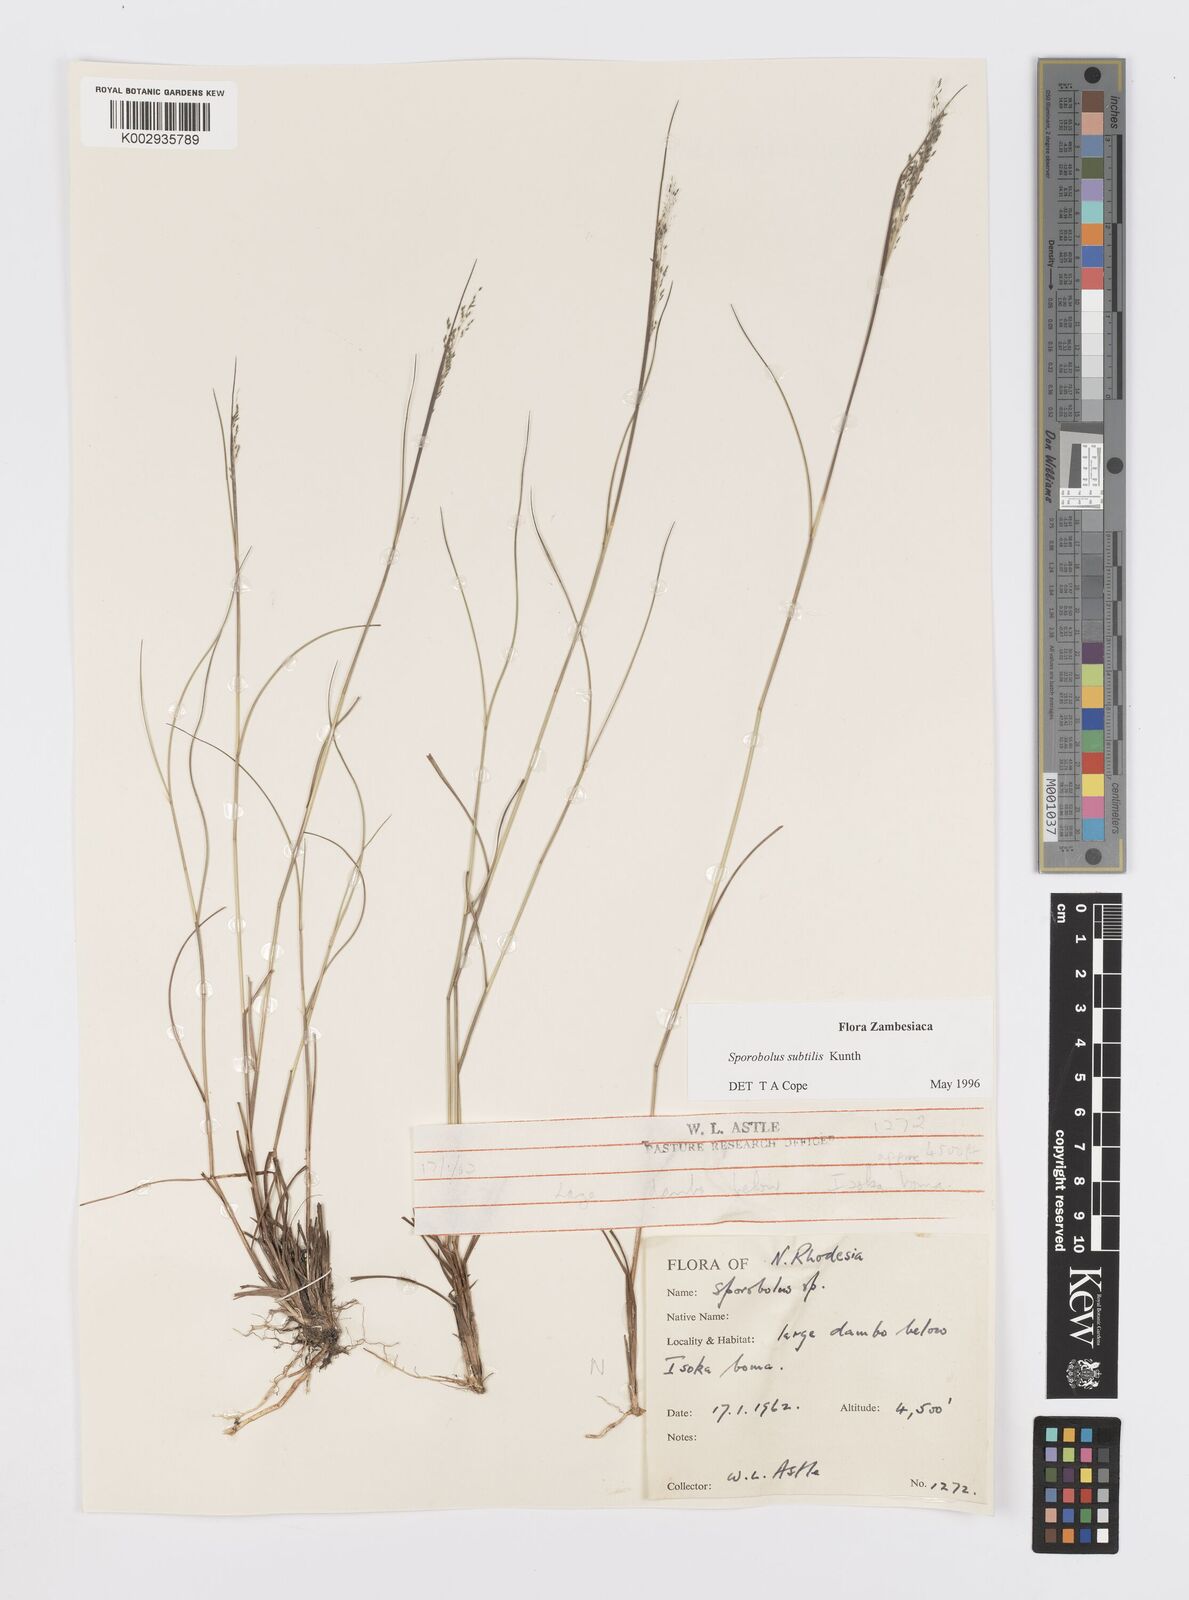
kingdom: Plantae
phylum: Tracheophyta
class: Liliopsida
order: Poales
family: Poaceae
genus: Sporobolus
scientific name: Sporobolus subtilis
